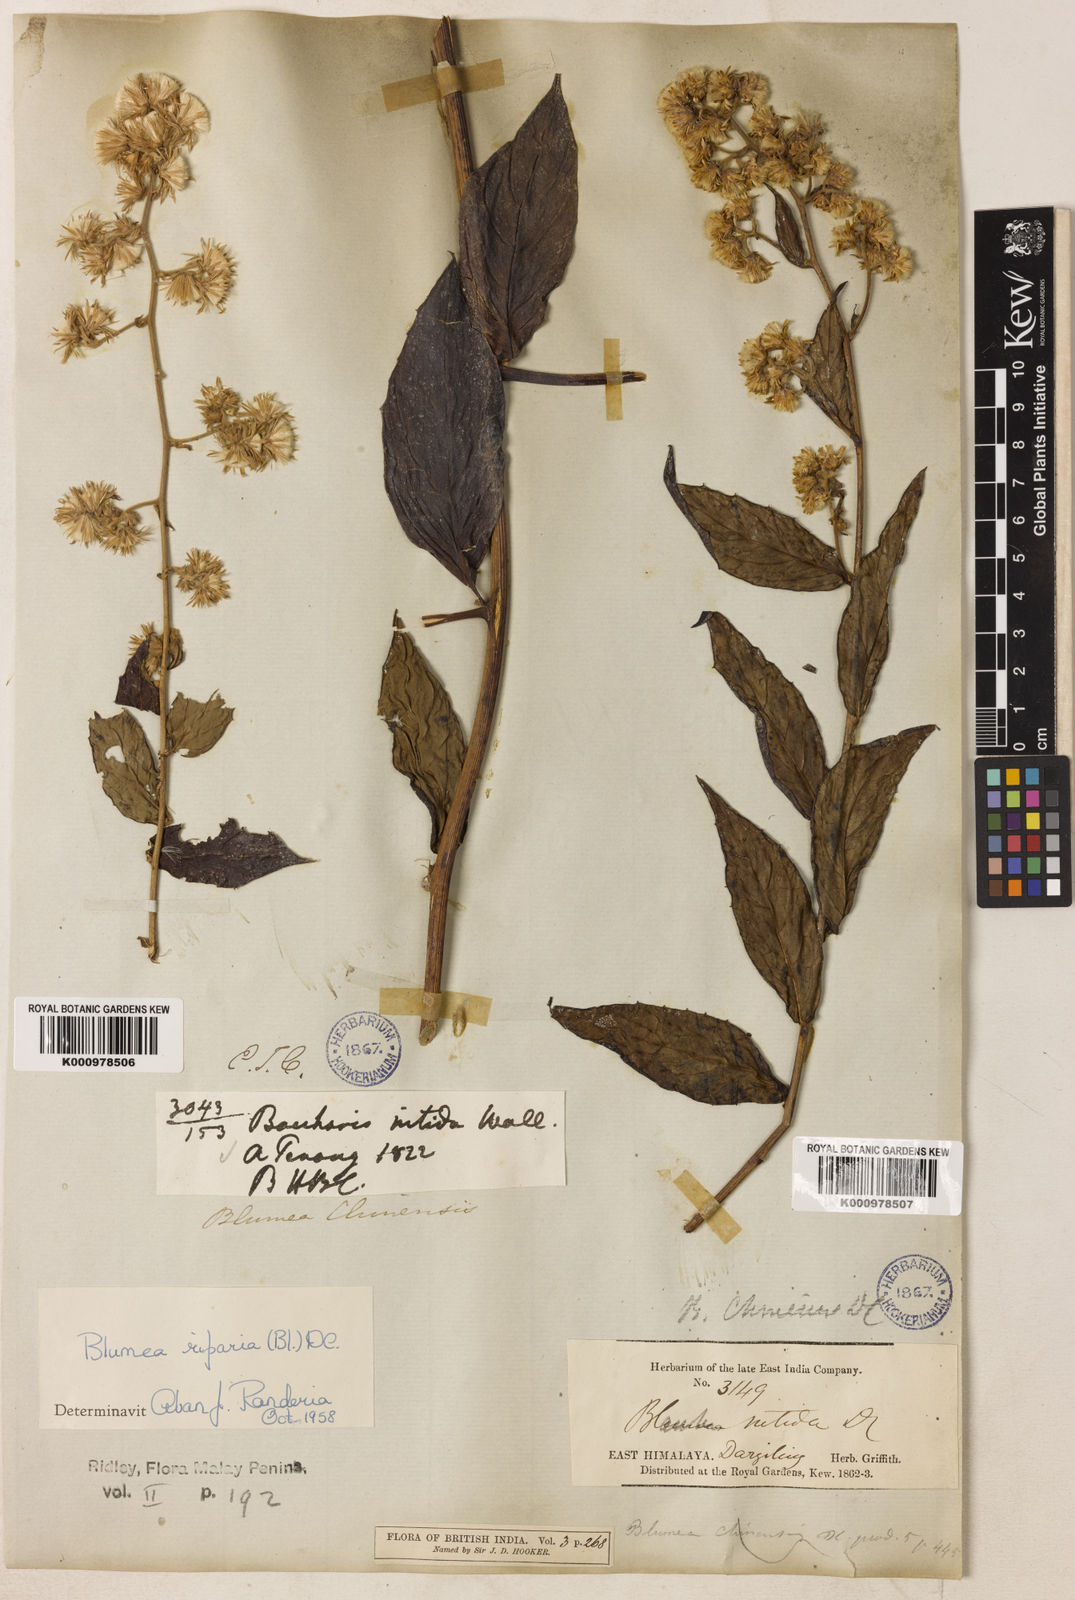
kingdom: Plantae
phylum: Tracheophyta
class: Magnoliopsida
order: Asterales
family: Asteraceae
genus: Blumea
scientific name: Blumea riparia
